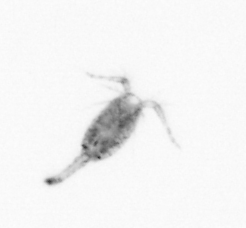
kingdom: Animalia
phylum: Arthropoda
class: Copepoda
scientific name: Copepoda
